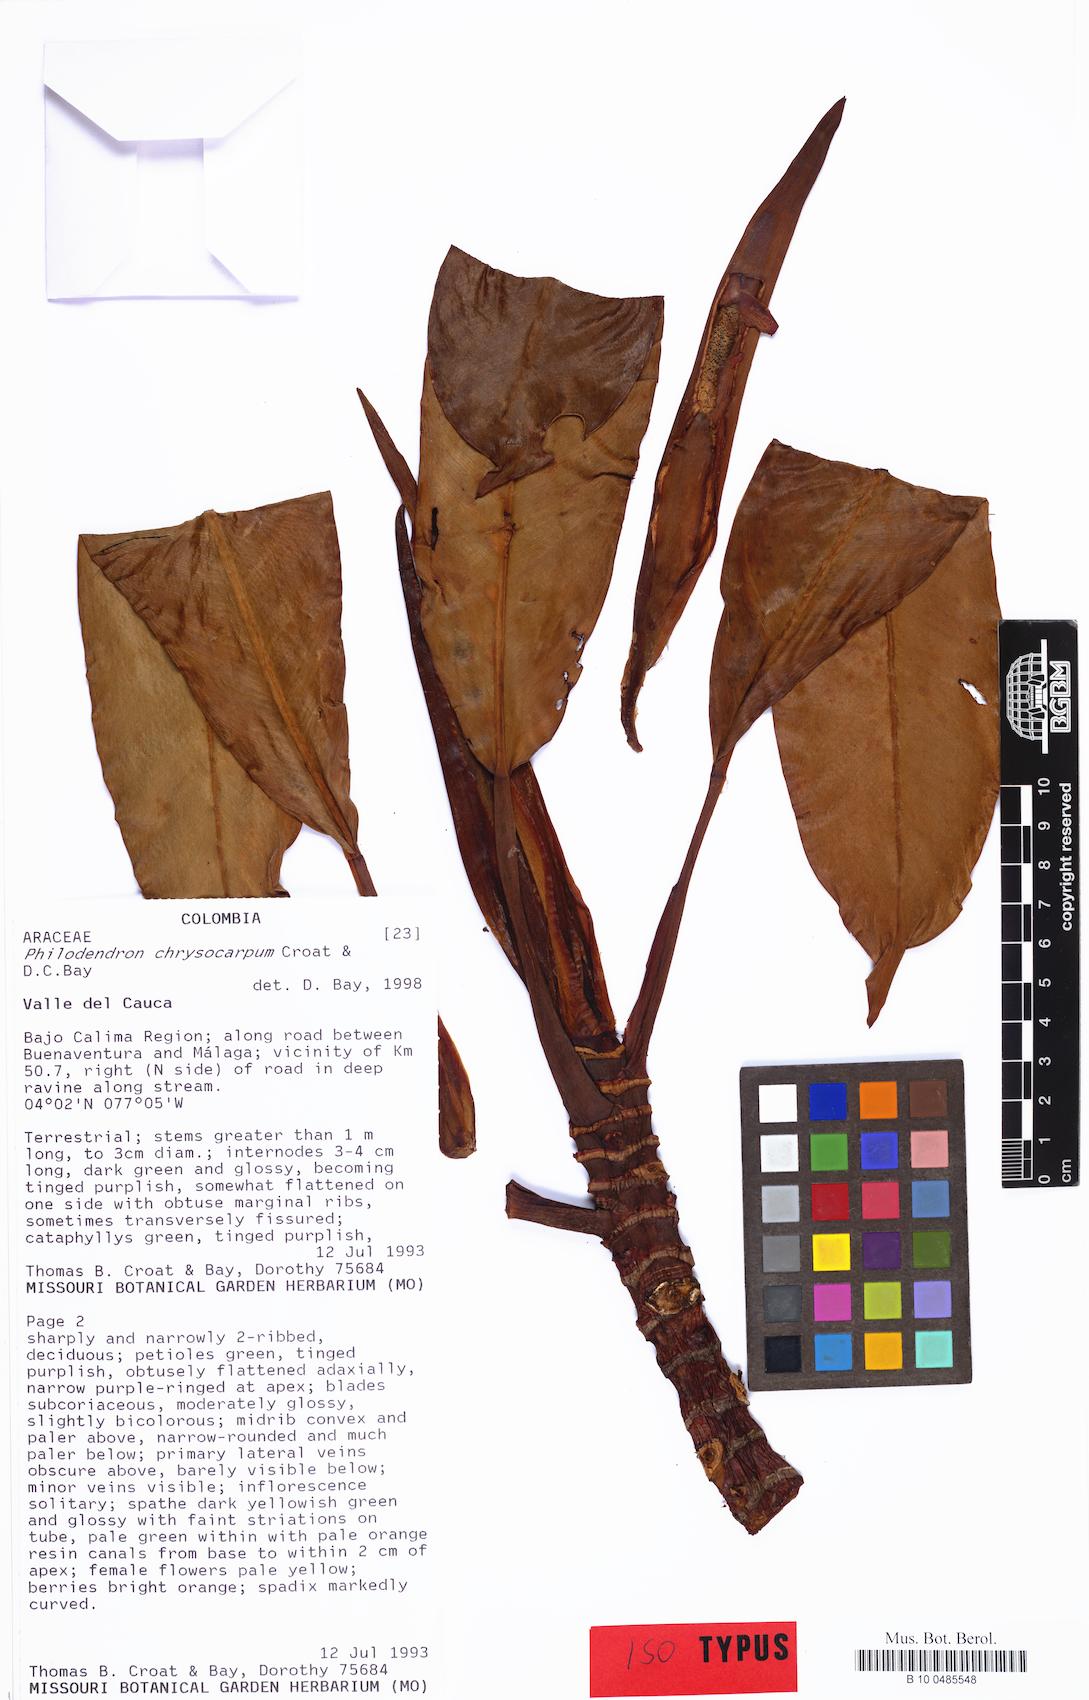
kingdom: Plantae
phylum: Tracheophyta
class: Liliopsida
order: Alismatales
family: Araceae
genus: Philodendron
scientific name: Philodendron chrysocarpum
